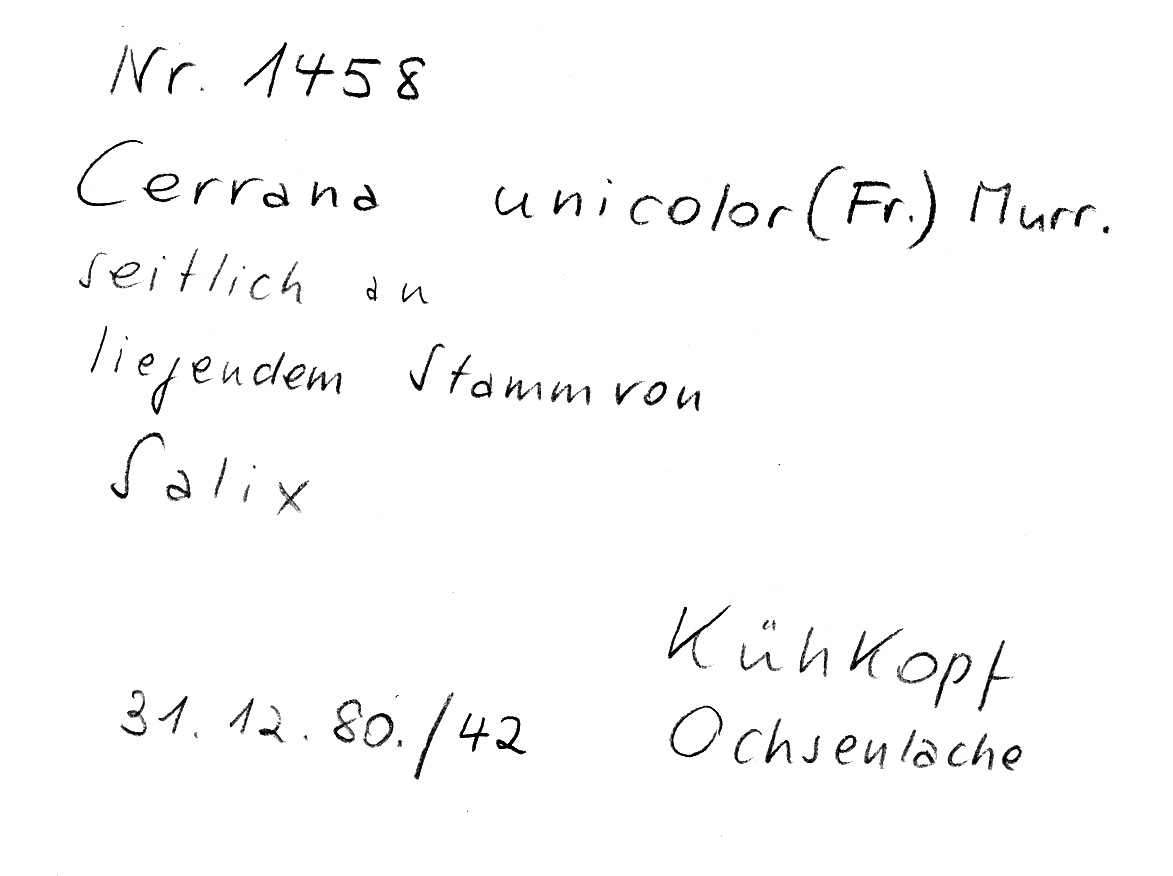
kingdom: Fungi
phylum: Basidiomycota
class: Agaricomycetes
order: Polyporales
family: Cerrenaceae
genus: Cerrena
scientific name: Cerrena unicolor
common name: Mossy maze polypore
